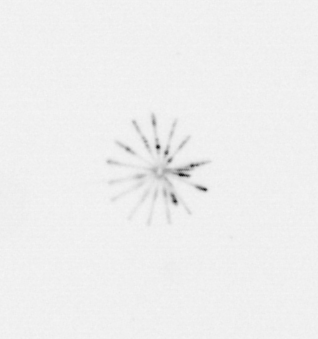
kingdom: Chromista
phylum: Ochrophyta
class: Bacillariophyceae
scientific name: Bacillariophyceae
